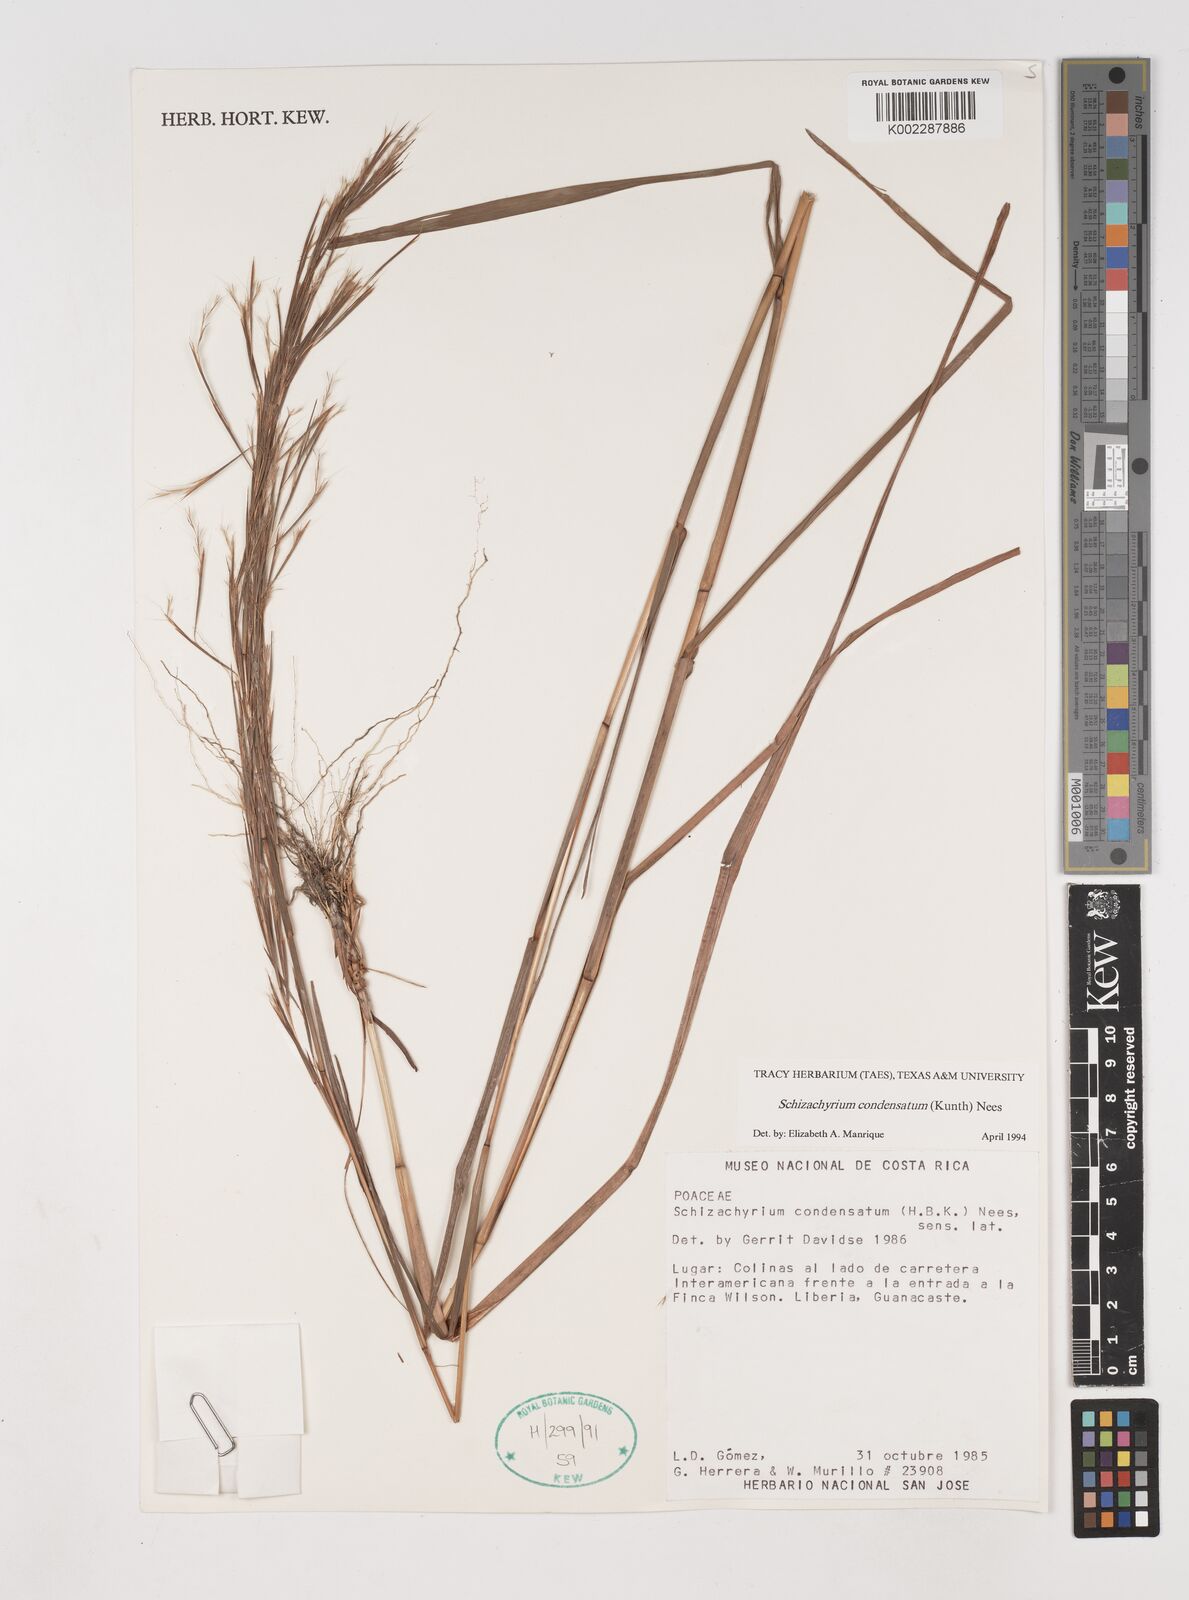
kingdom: Plantae
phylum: Tracheophyta
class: Liliopsida
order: Poales
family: Poaceae
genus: Schizachyrium
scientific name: Schizachyrium condensatum
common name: Bush beardgrass
